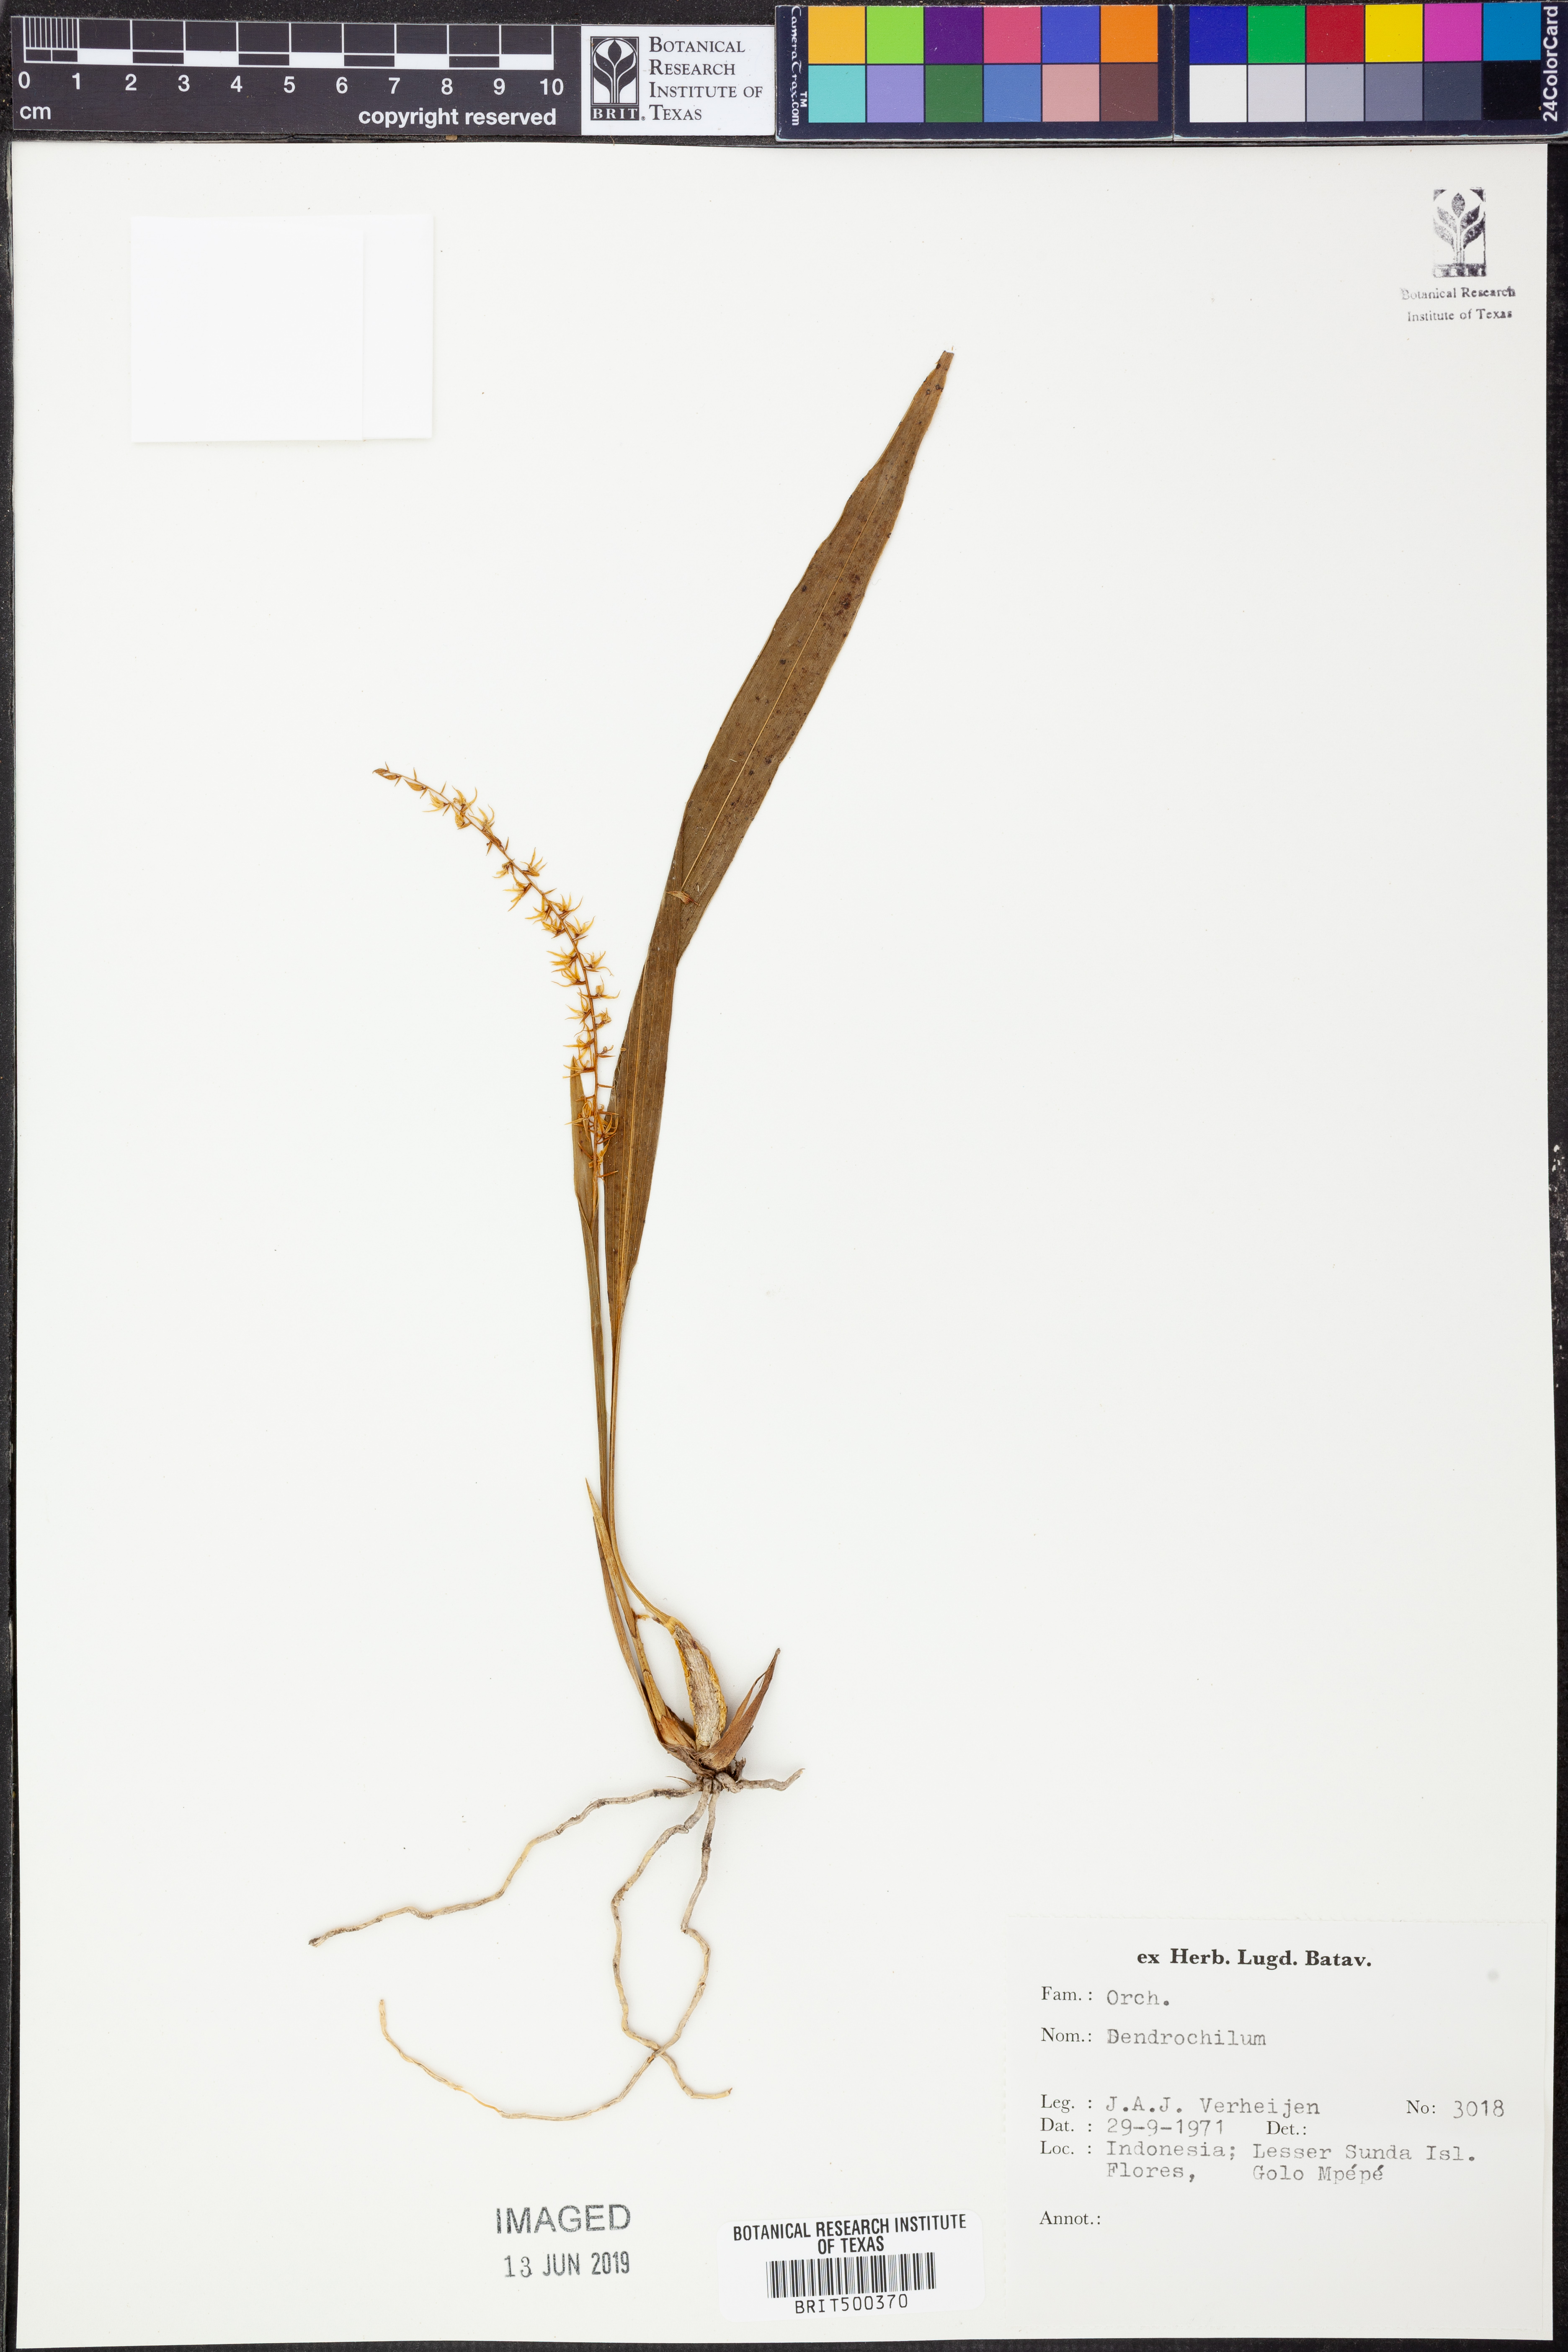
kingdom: Plantae
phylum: Tracheophyta
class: Liliopsida
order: Asparagales
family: Orchidaceae
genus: Coelogyne
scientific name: Coelogyne
